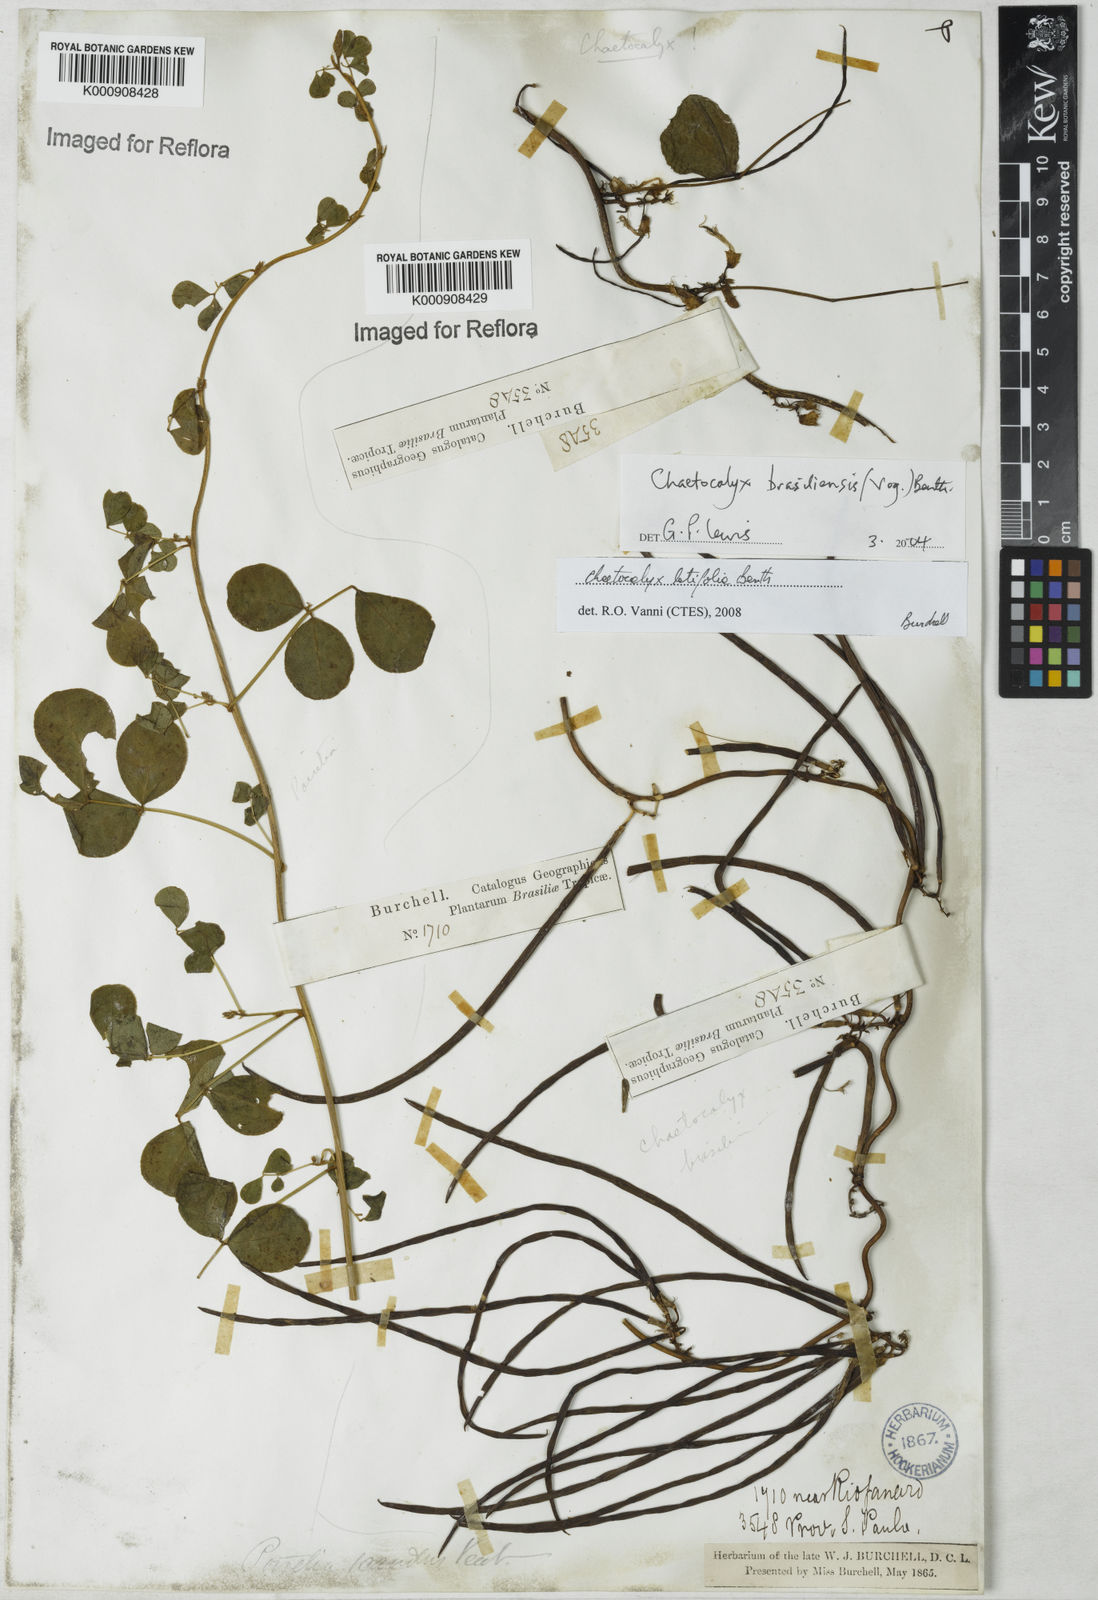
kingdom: Plantae
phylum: Tracheophyta
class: Magnoliopsida
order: Fabales
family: Fabaceae
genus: Nissolia
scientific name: Nissolia brasiliensis
